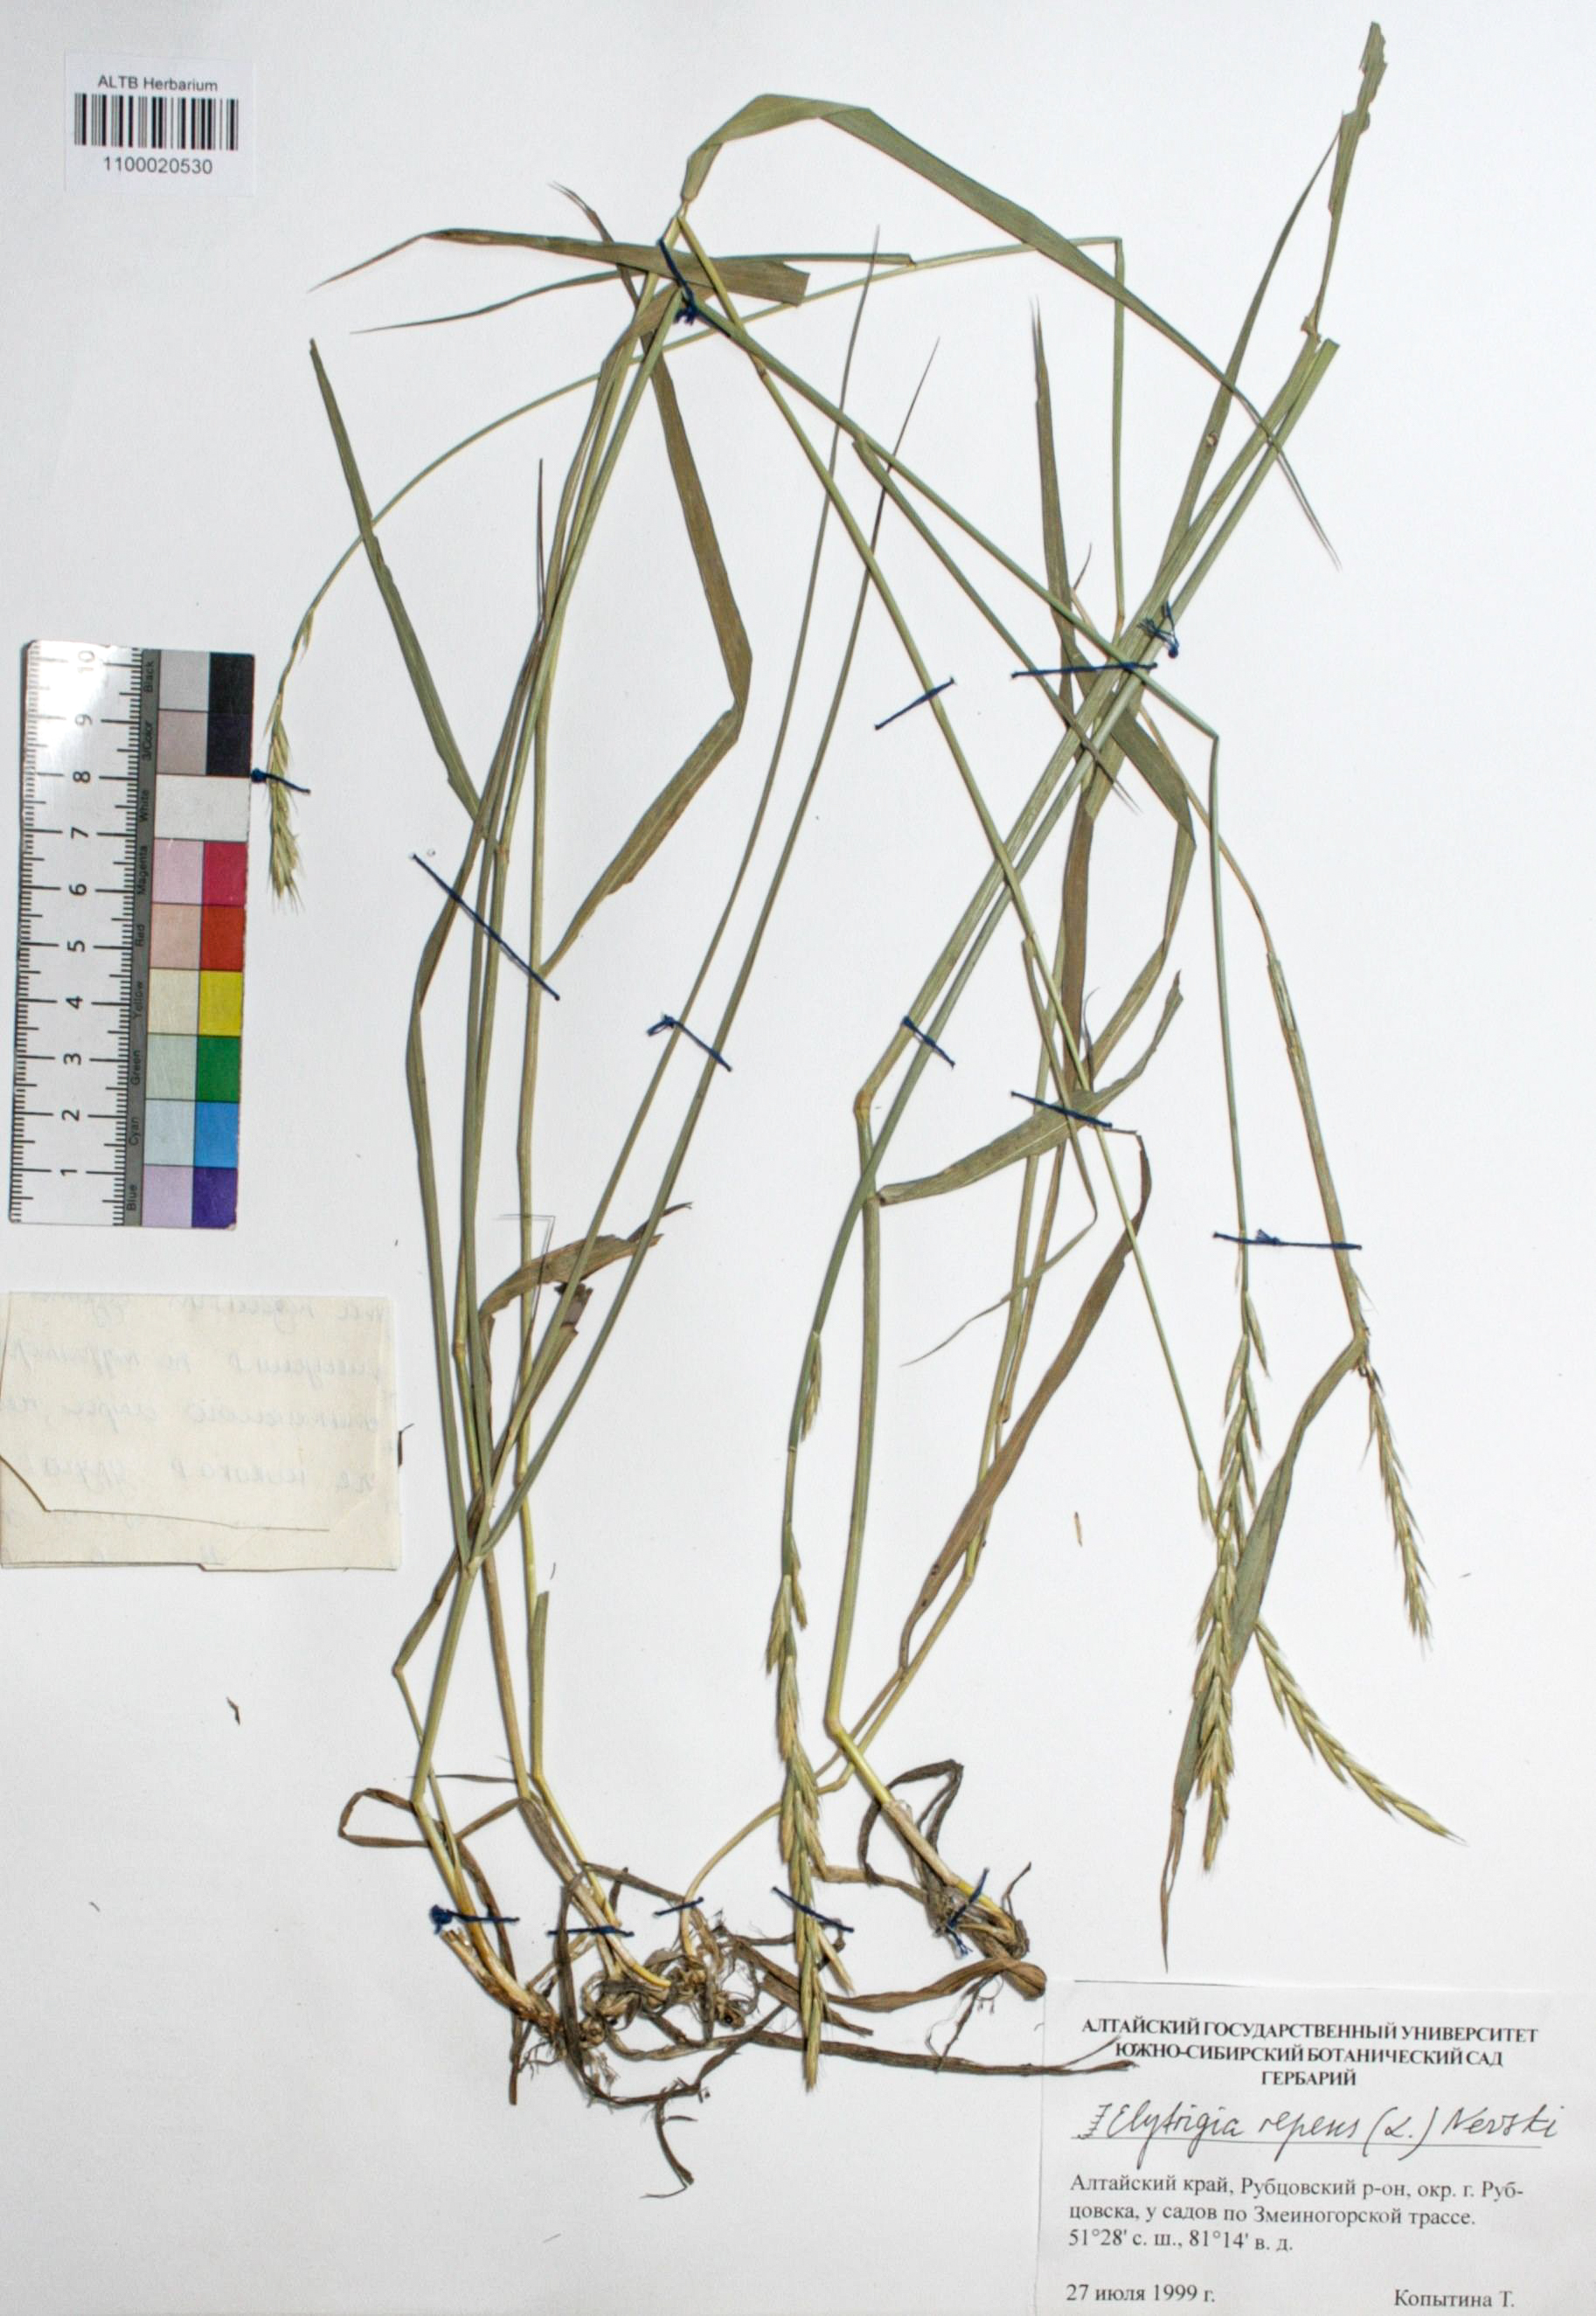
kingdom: Plantae
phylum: Tracheophyta
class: Liliopsida
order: Poales
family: Poaceae
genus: Elymus
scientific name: Elymus repens
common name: Quackgrass
